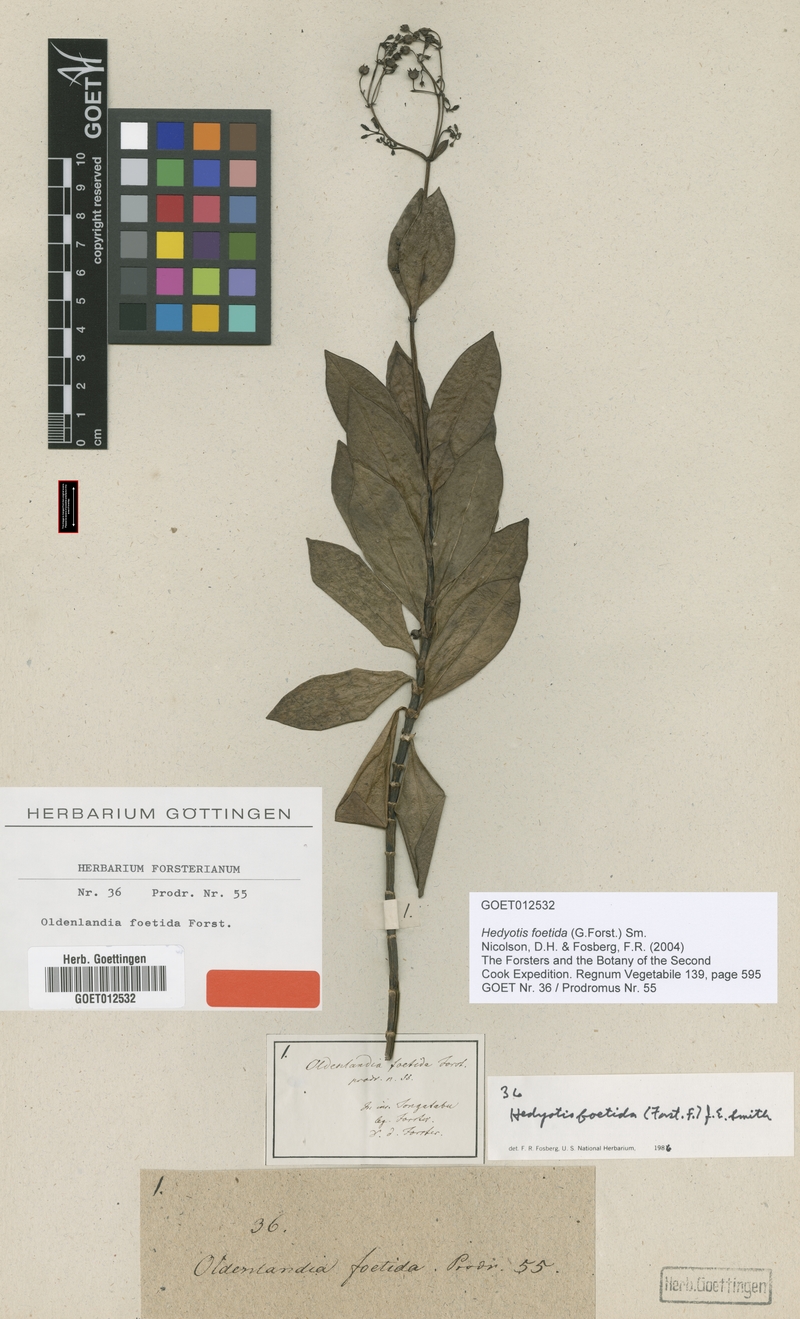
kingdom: Plantae
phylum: Tracheophyta
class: Magnoliopsida
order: Gentianales
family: Rubiaceae
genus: Leptopetalum
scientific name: Leptopetalum foetidum
